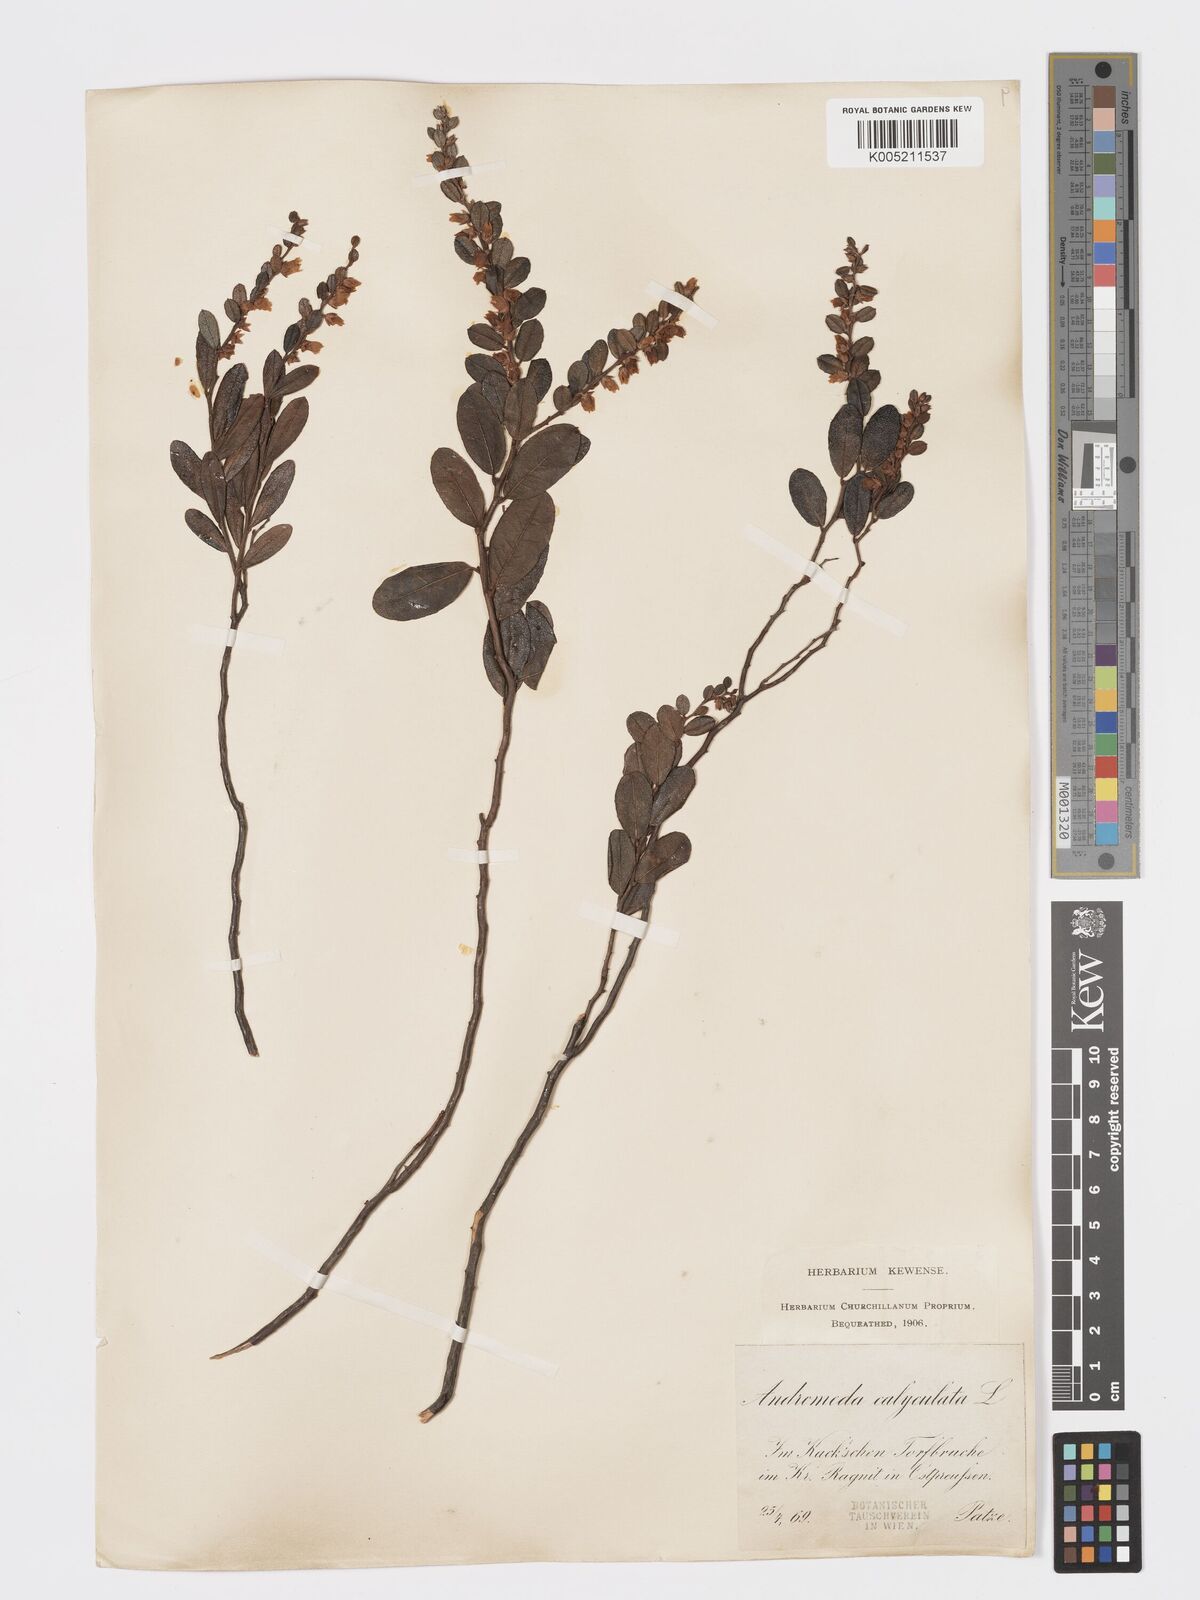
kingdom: Plantae
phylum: Tracheophyta
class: Magnoliopsida
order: Ericales
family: Ericaceae
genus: Chamaedaphne
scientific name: Chamaedaphne calyculata
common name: Leatherleaf
